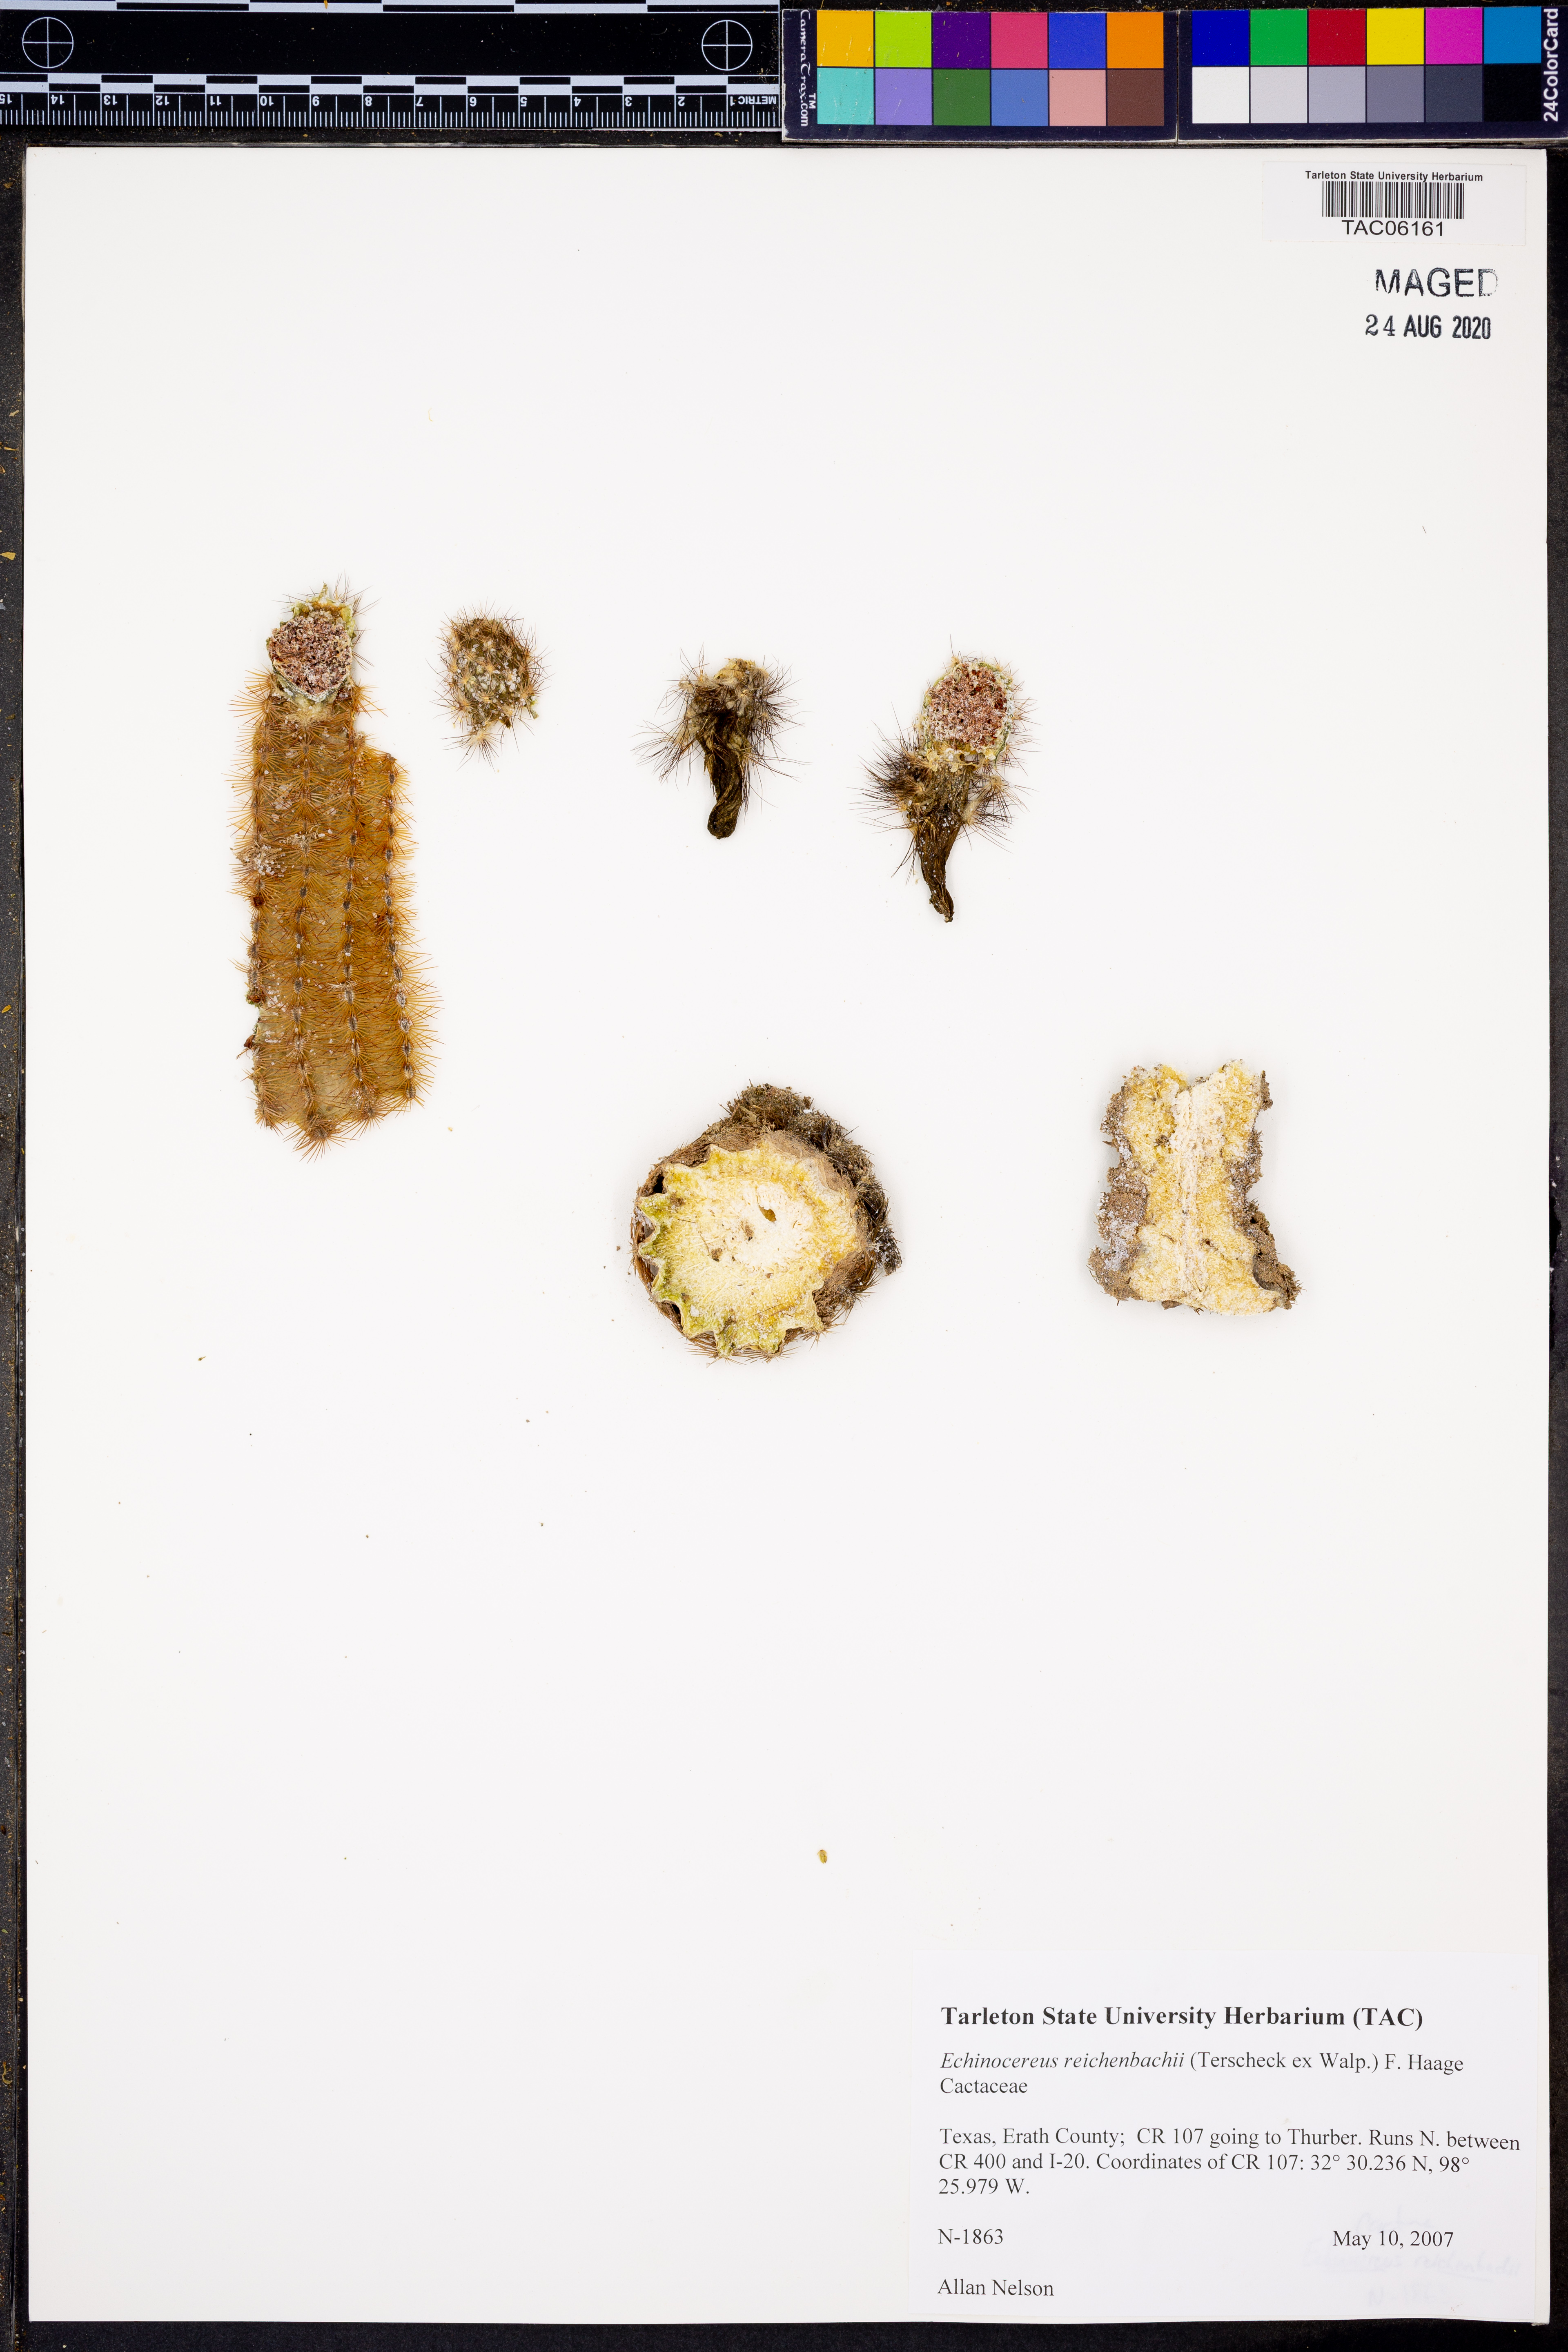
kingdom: Plantae
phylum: Tracheophyta
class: Magnoliopsida
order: Caryophyllales
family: Cactaceae
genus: Echinocereus
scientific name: Echinocereus reichenbachii
